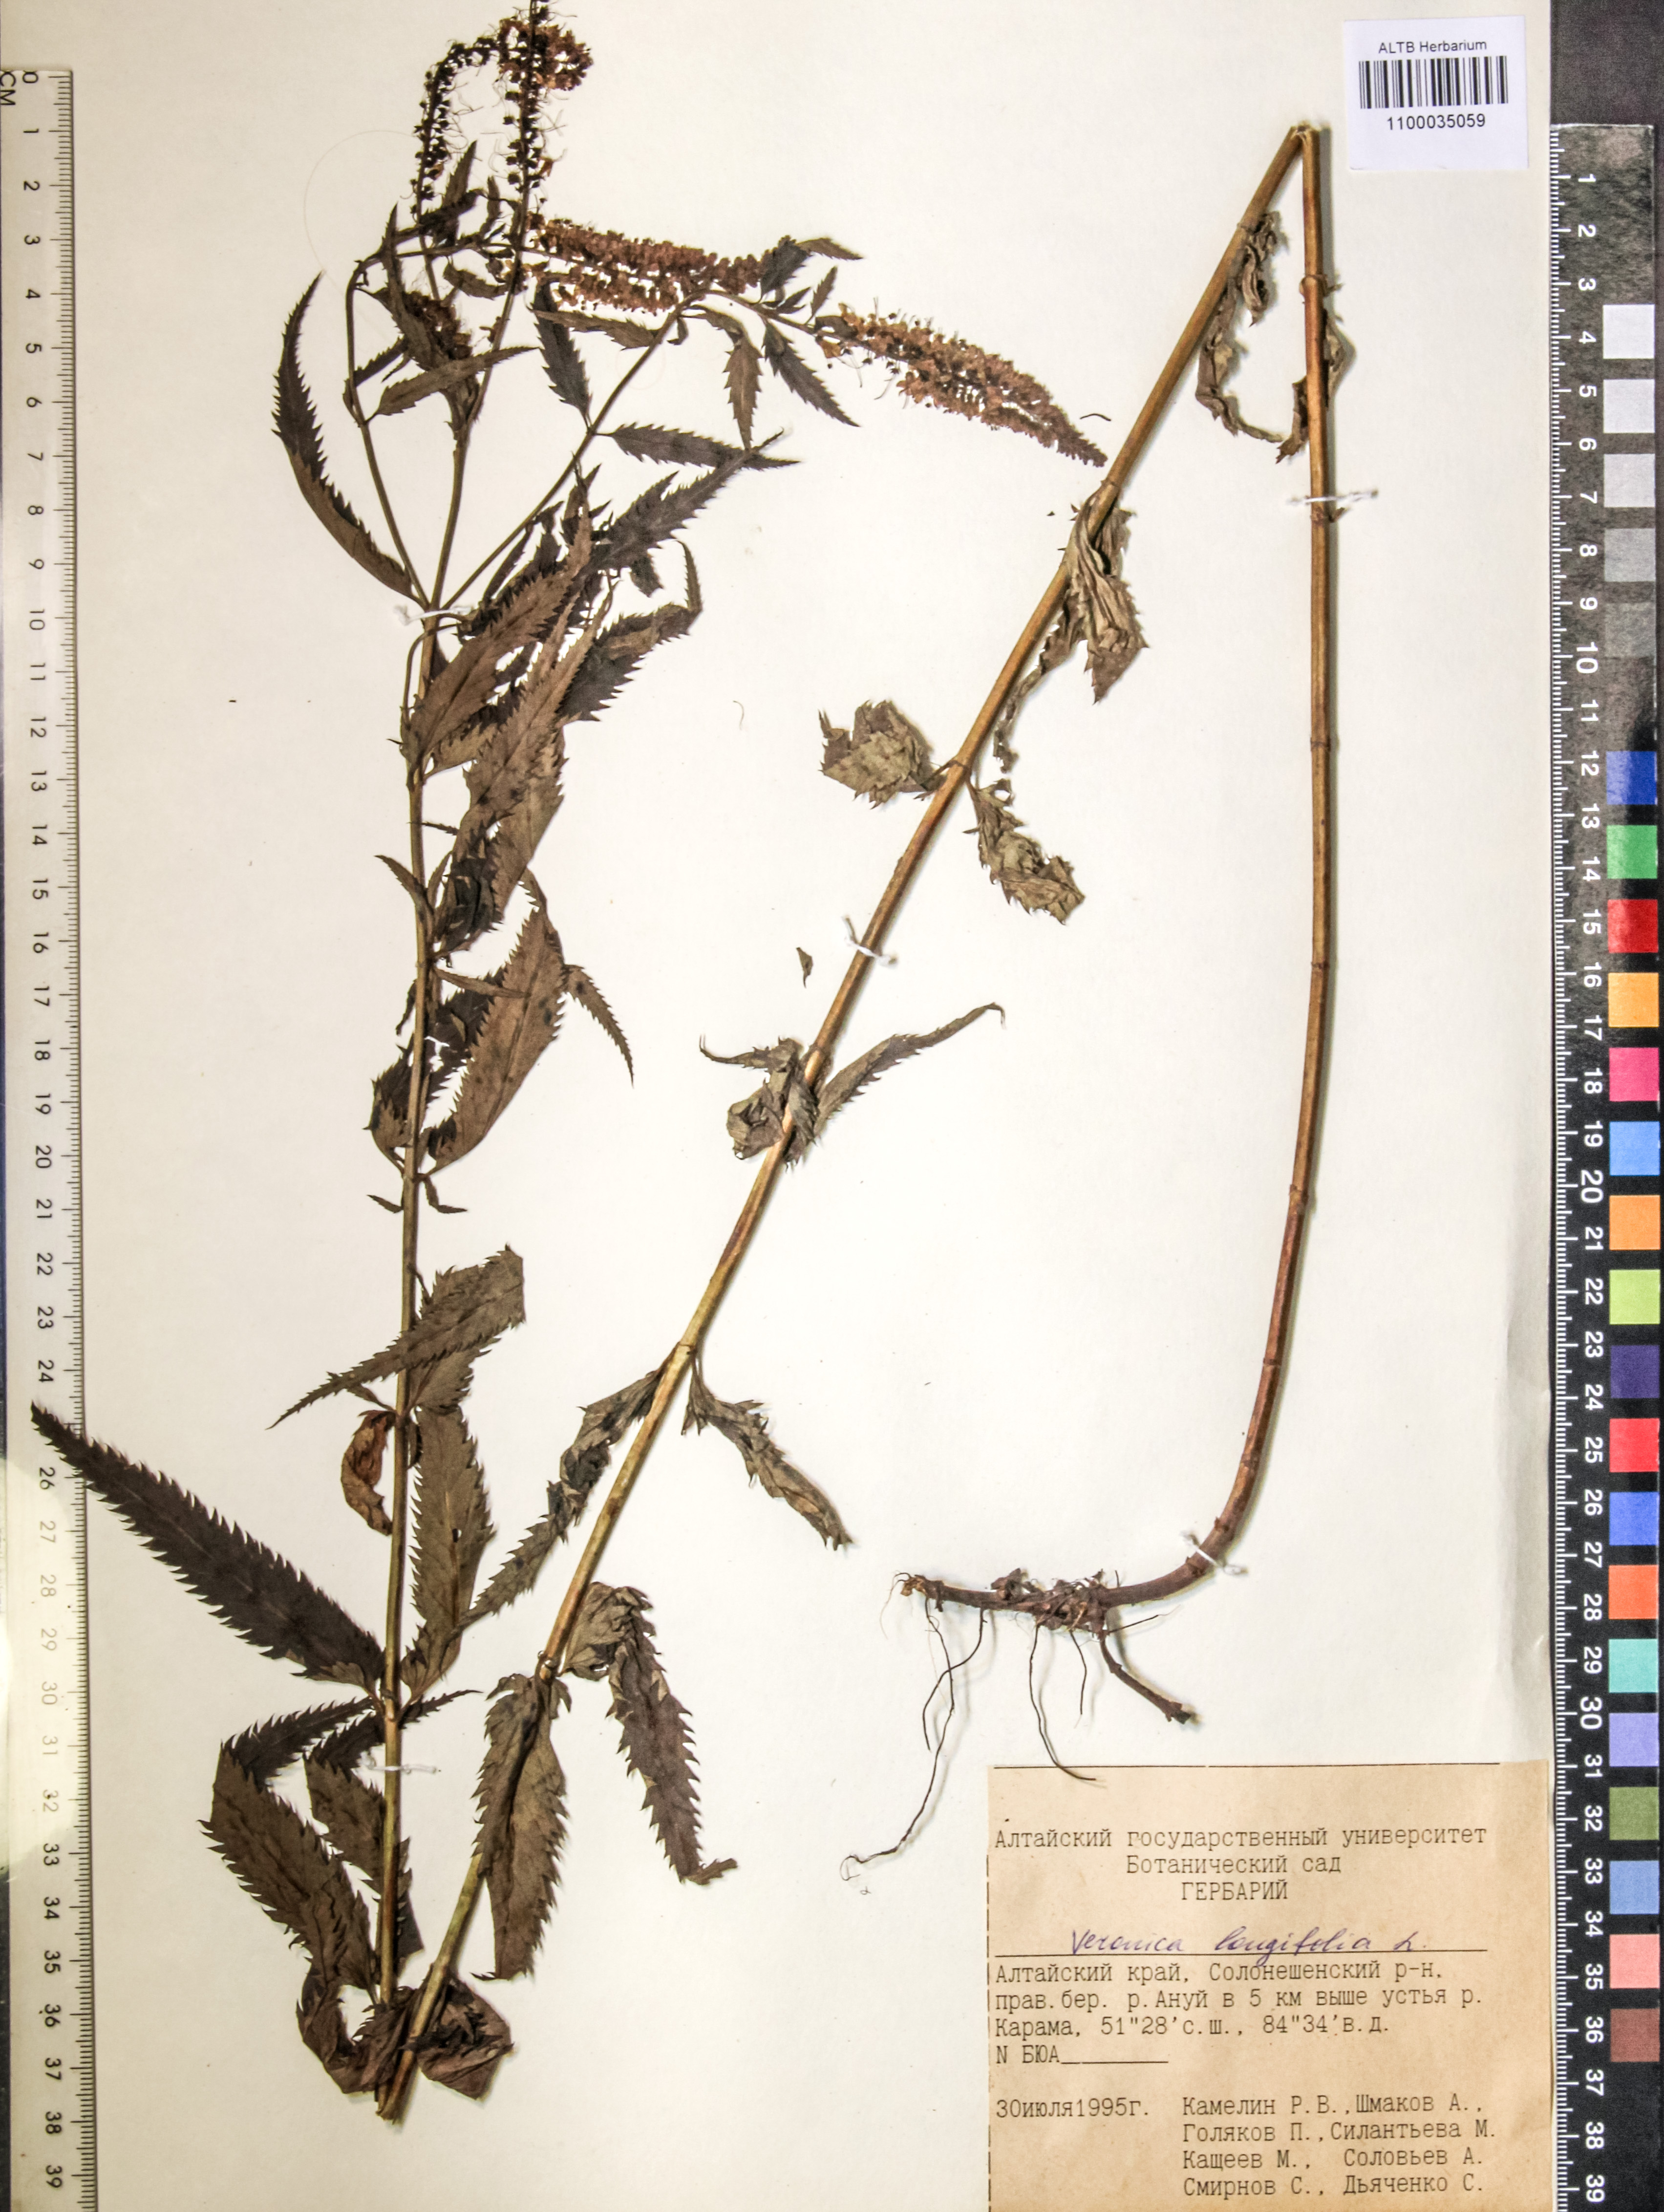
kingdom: Plantae
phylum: Tracheophyta
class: Magnoliopsida
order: Lamiales
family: Plantaginaceae
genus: Veronica
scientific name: Veronica longifolia
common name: Garden speedwell
